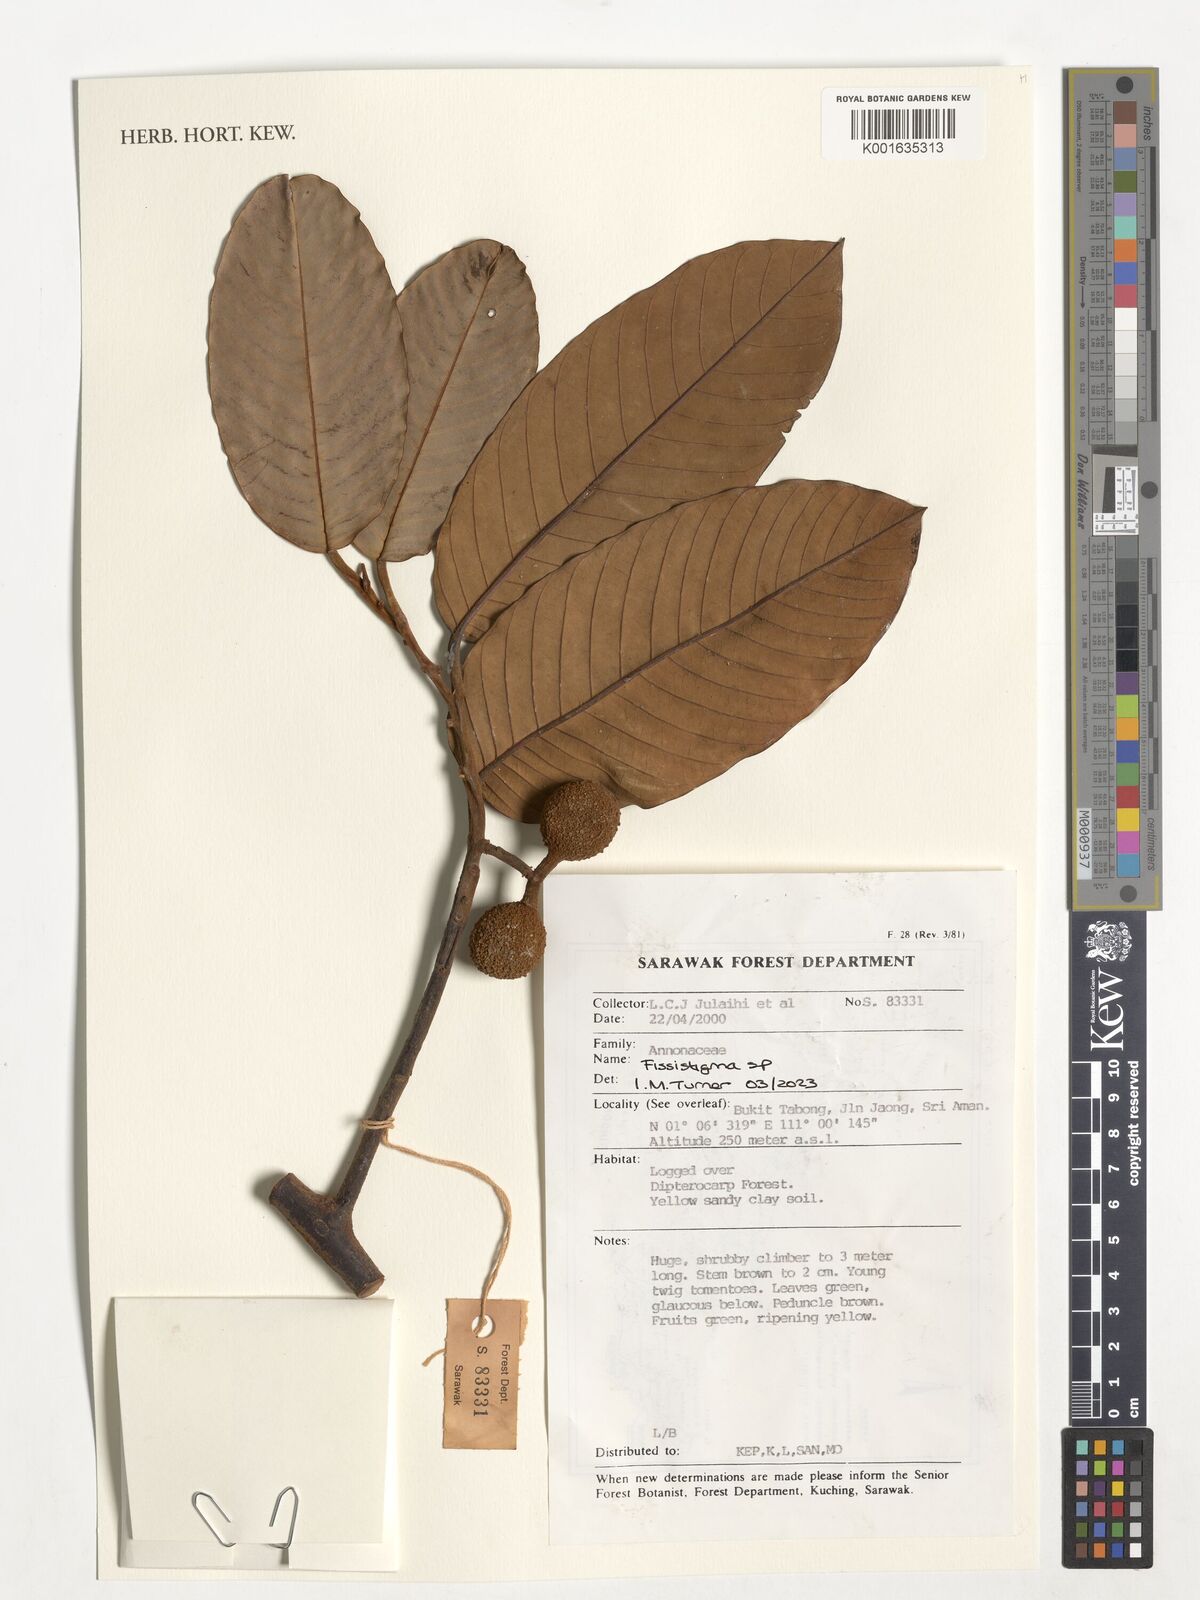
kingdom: Plantae
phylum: Tracheophyta
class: Magnoliopsida
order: Magnoliales
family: Annonaceae
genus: Fissistigma
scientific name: Fissistigma
